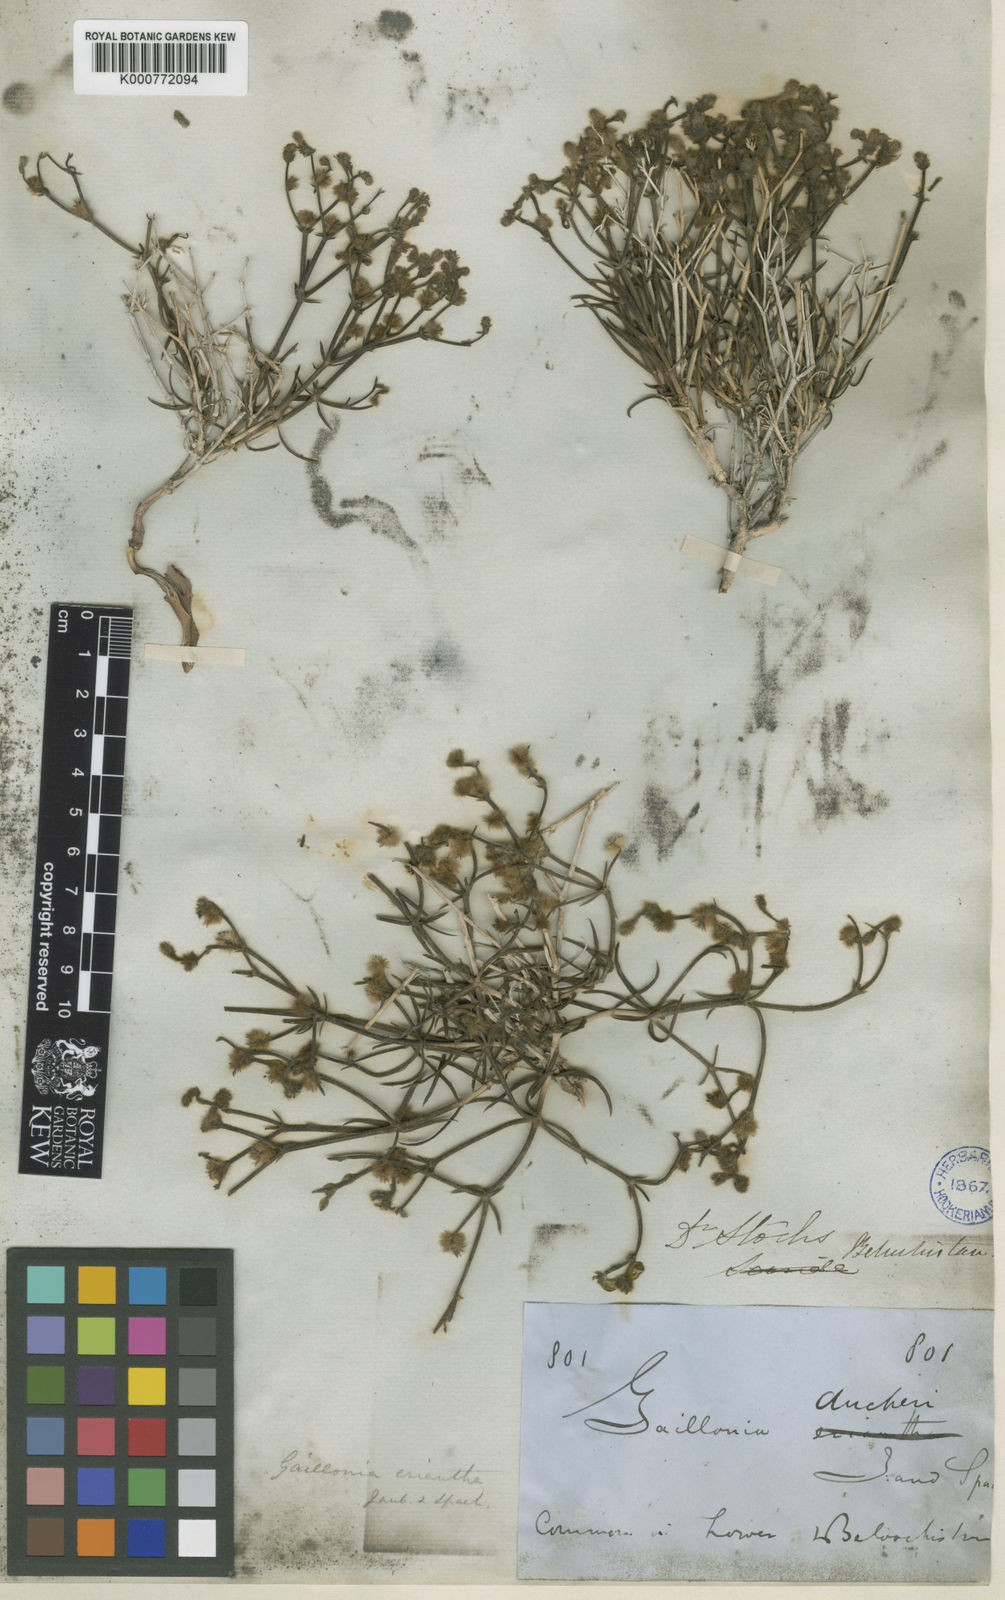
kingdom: Plantae
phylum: Tracheophyta
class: Magnoliopsida
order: Gentianales
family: Rubiaceae
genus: Aitchisonia
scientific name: Aitchisonia rosea
